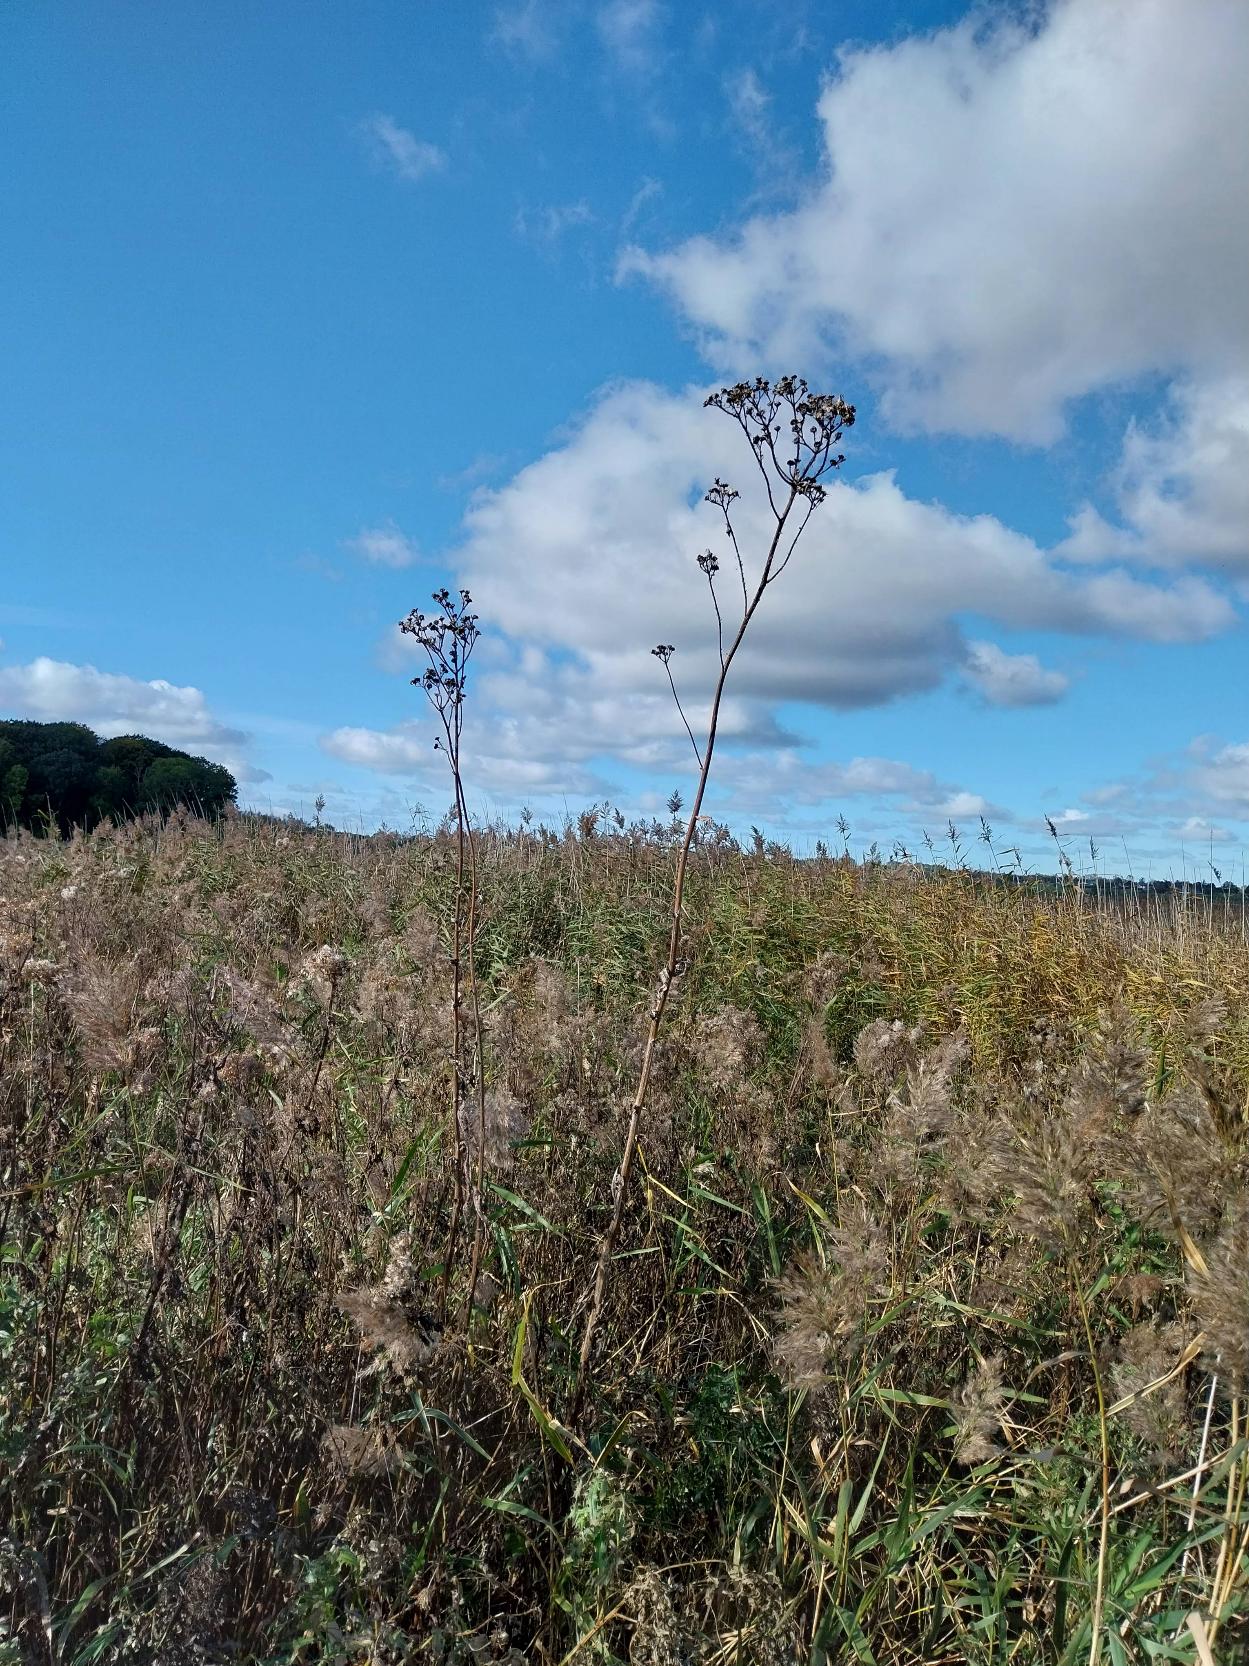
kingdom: Plantae
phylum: Tracheophyta
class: Magnoliopsida
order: Asterales
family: Asteraceae
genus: Sonchus
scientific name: Sonchus palustris
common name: Kær-svinemælk
